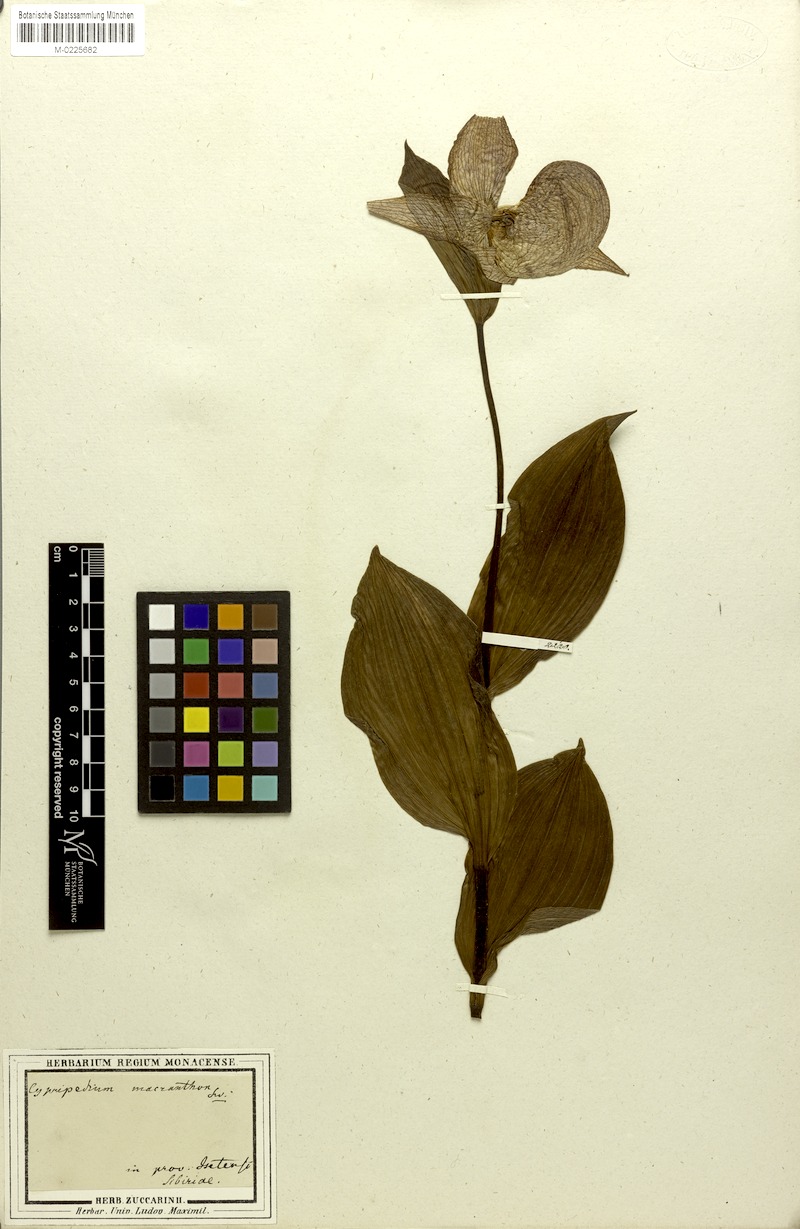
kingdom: Plantae
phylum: Tracheophyta
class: Liliopsida
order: Asparagales
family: Orchidaceae
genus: Cypripedium
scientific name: Cypripedium macranthon
